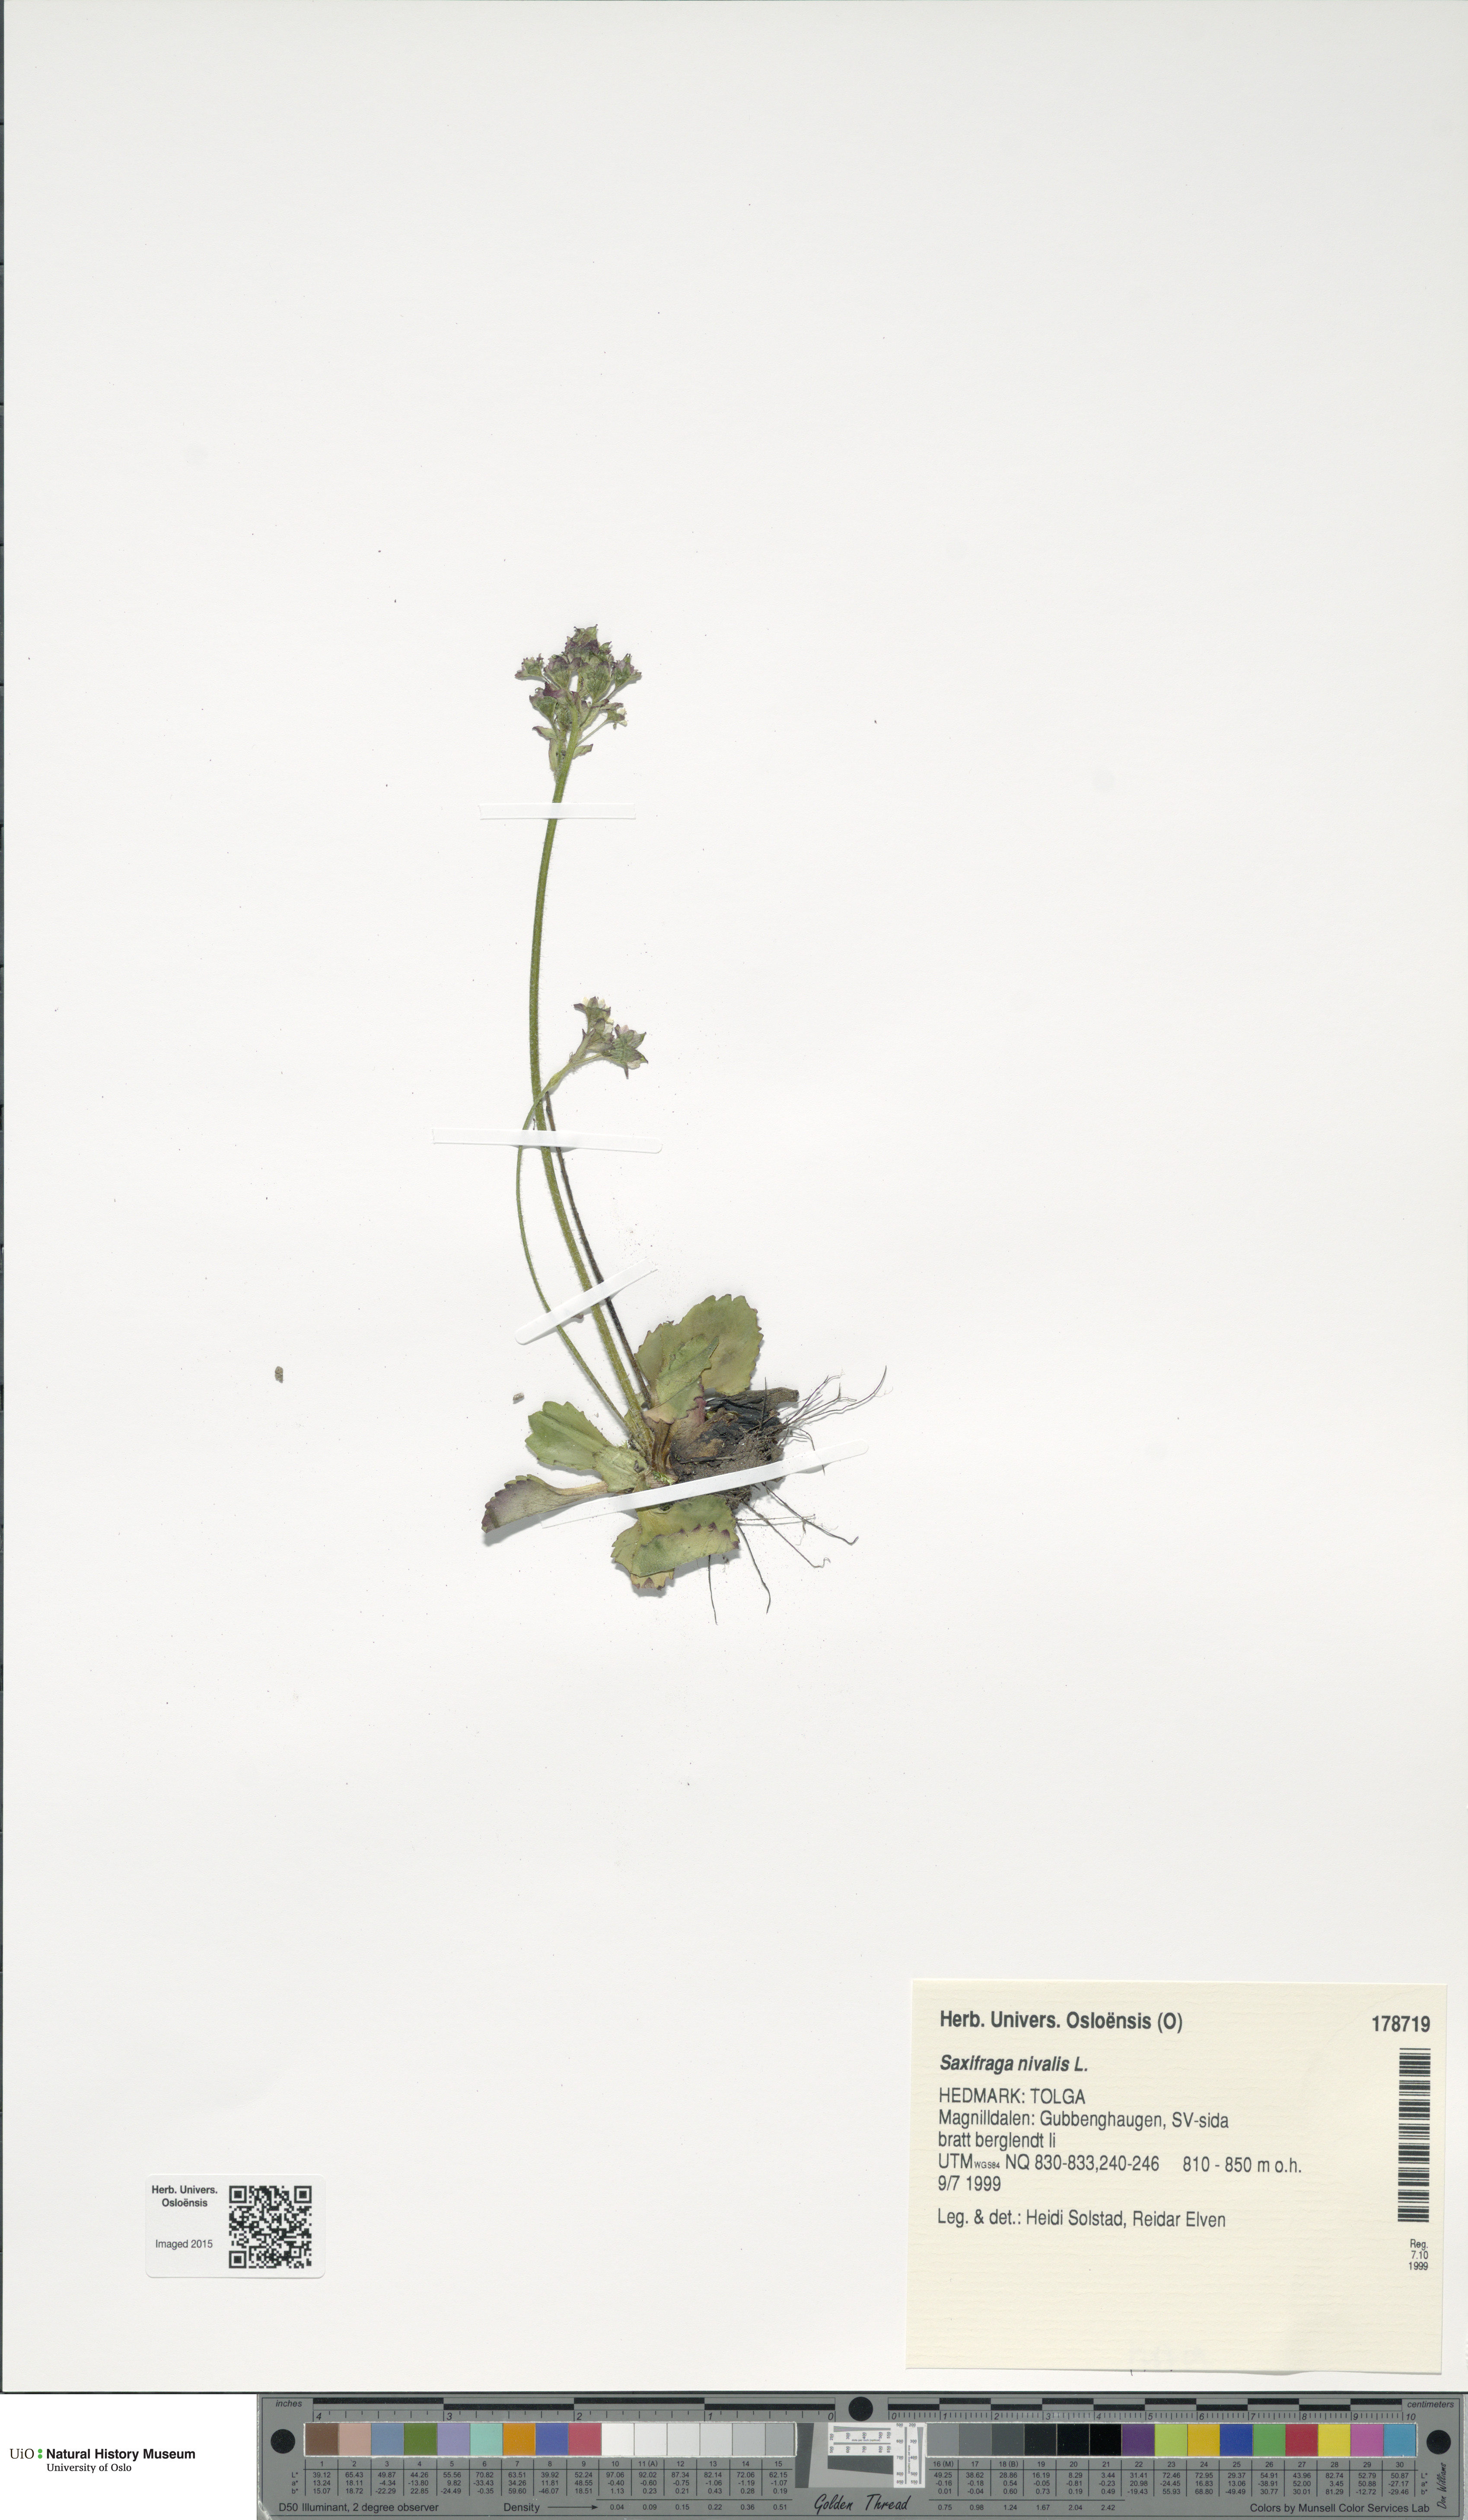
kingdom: Plantae
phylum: Tracheophyta
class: Magnoliopsida
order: Saxifragales
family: Saxifragaceae
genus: Micranthes
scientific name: Micranthes nivalis
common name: Alpine saxifrage
